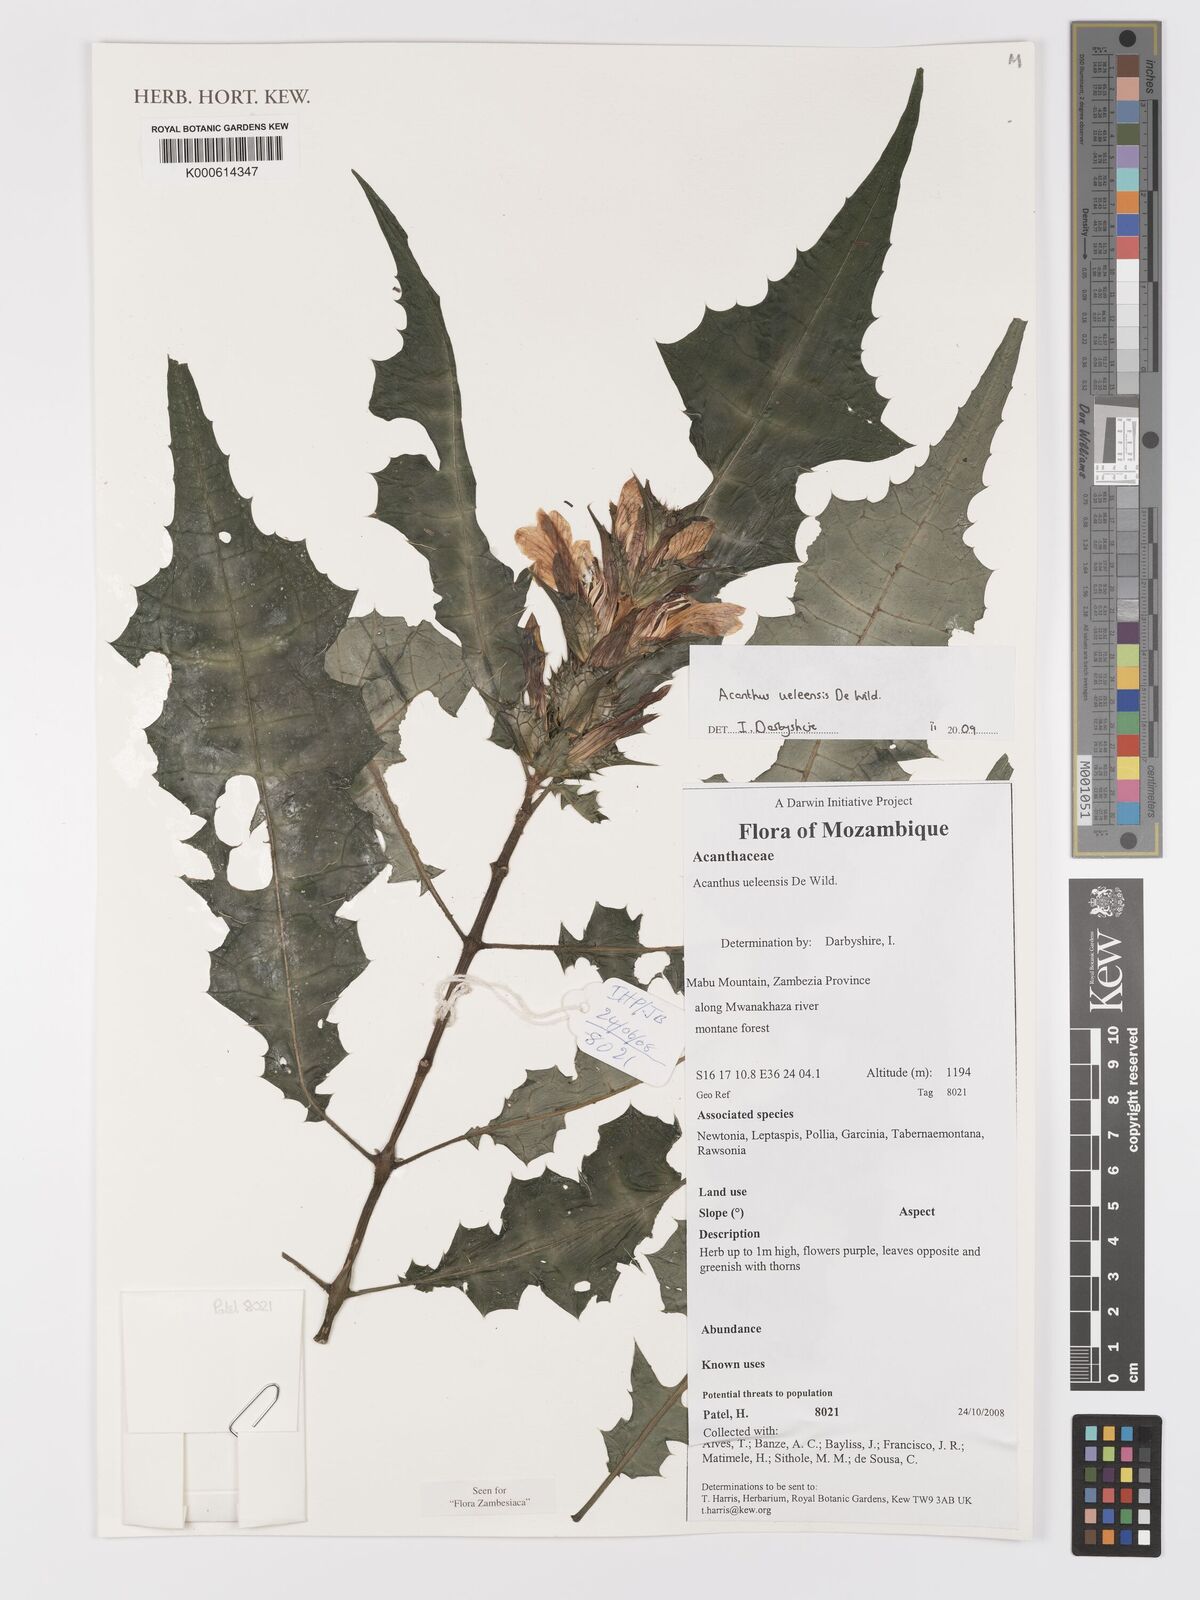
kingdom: Plantae
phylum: Tracheophyta
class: Magnoliopsida
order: Lamiales
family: Acanthaceae
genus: Acanthus
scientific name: Acanthus ueleensis
